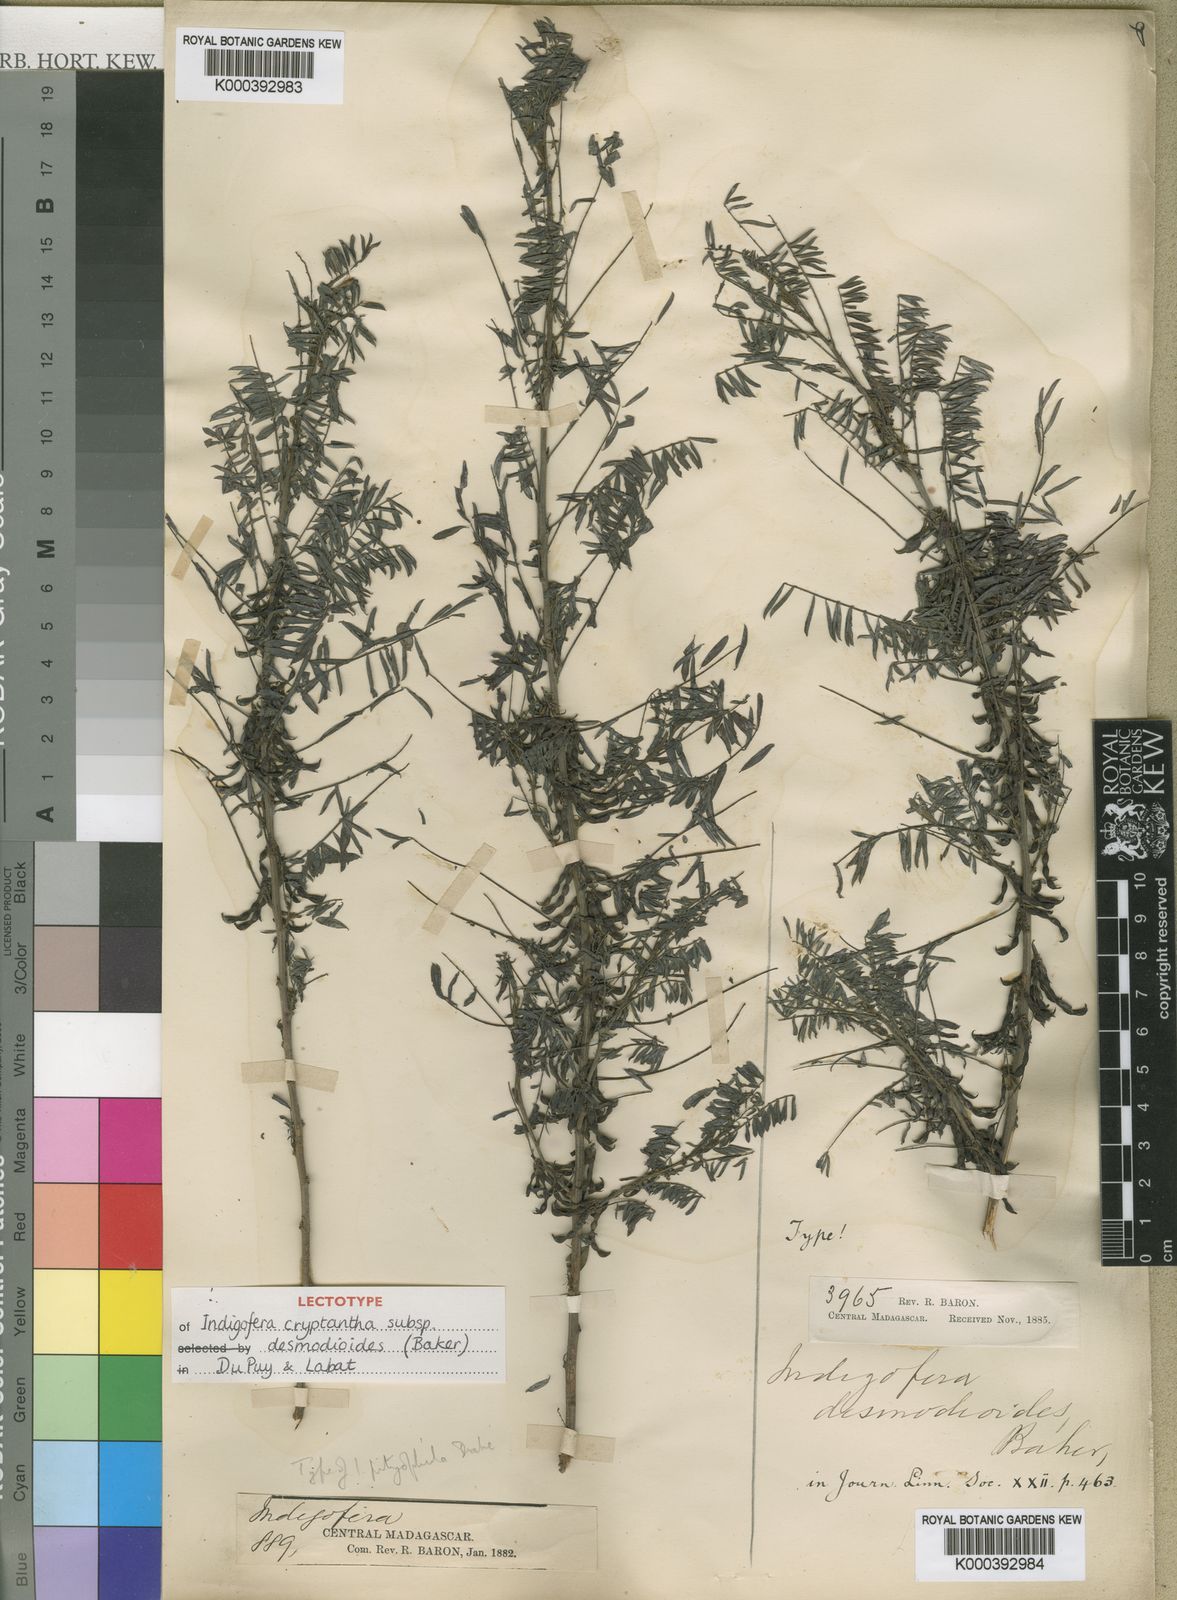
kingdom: Plantae
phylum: Tracheophyta
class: Magnoliopsida
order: Fabales
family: Fabaceae
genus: Indigofera
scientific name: Indigofera cryptantha
